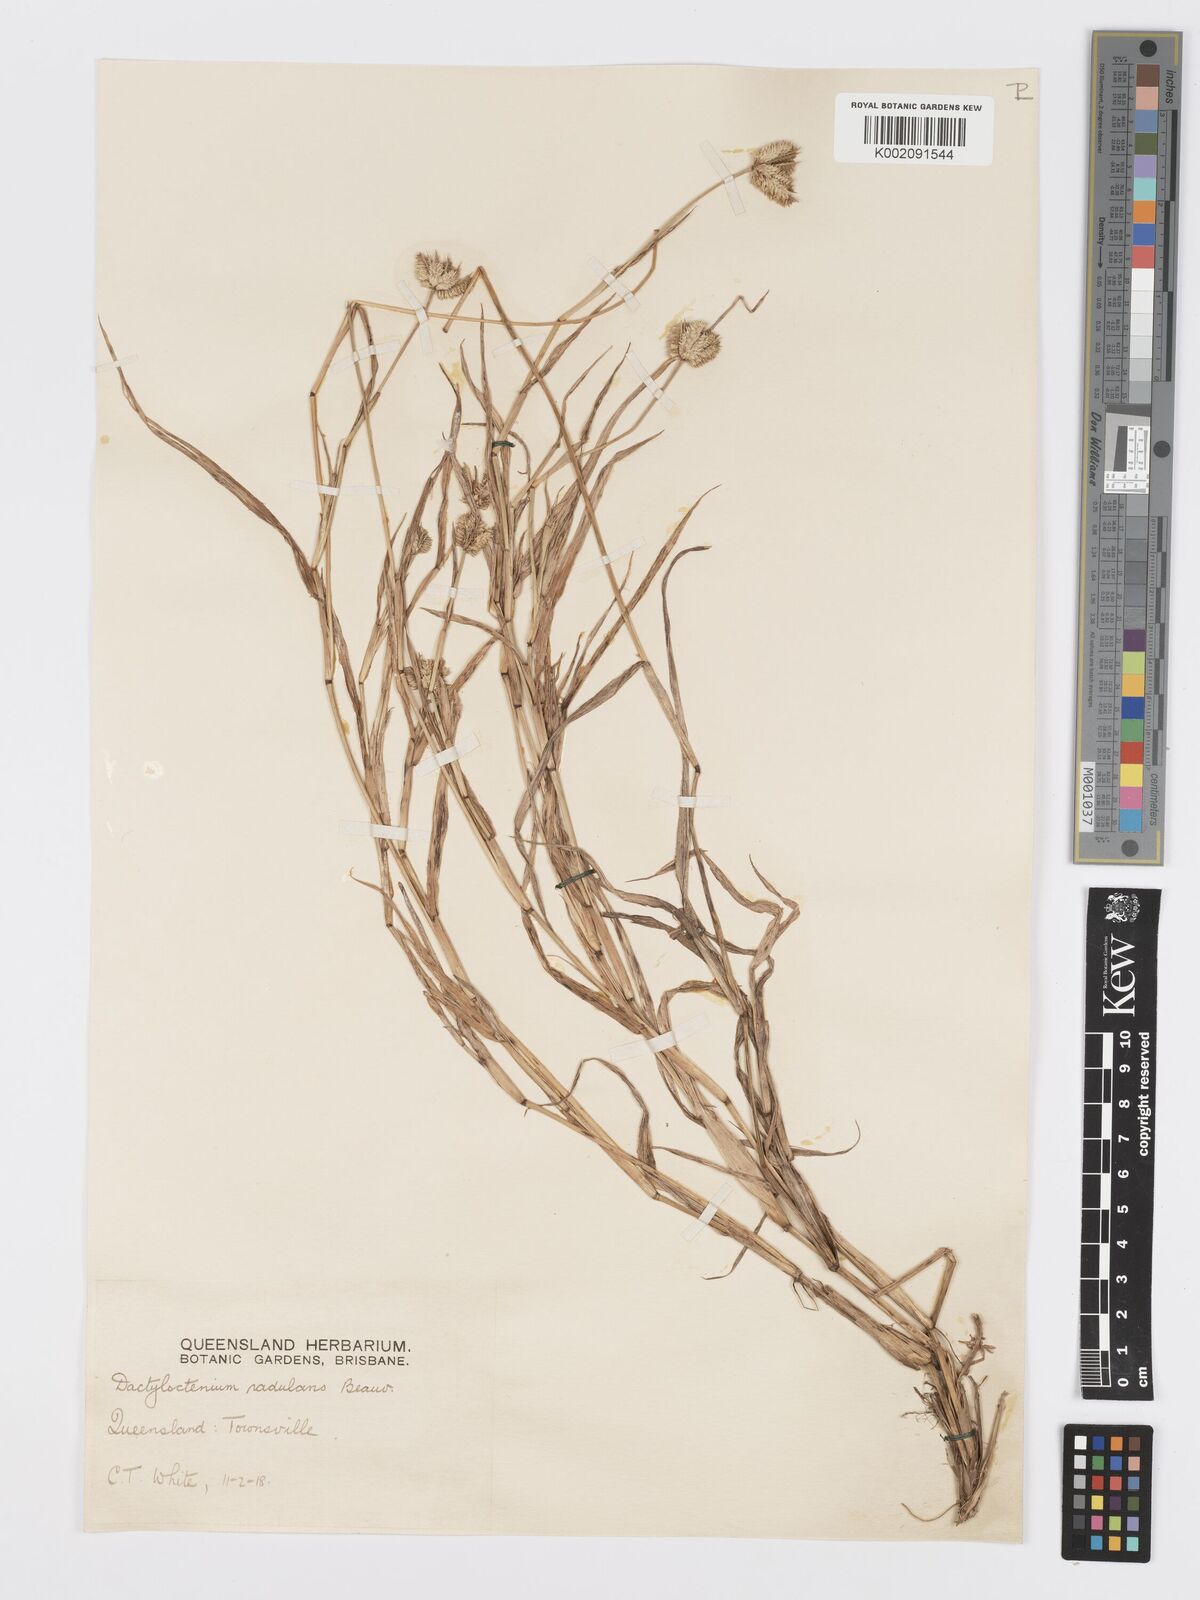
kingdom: Plantae
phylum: Tracheophyta
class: Liliopsida
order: Poales
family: Poaceae
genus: Dactyloctenium
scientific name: Dactyloctenium radulans
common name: Button-grass
